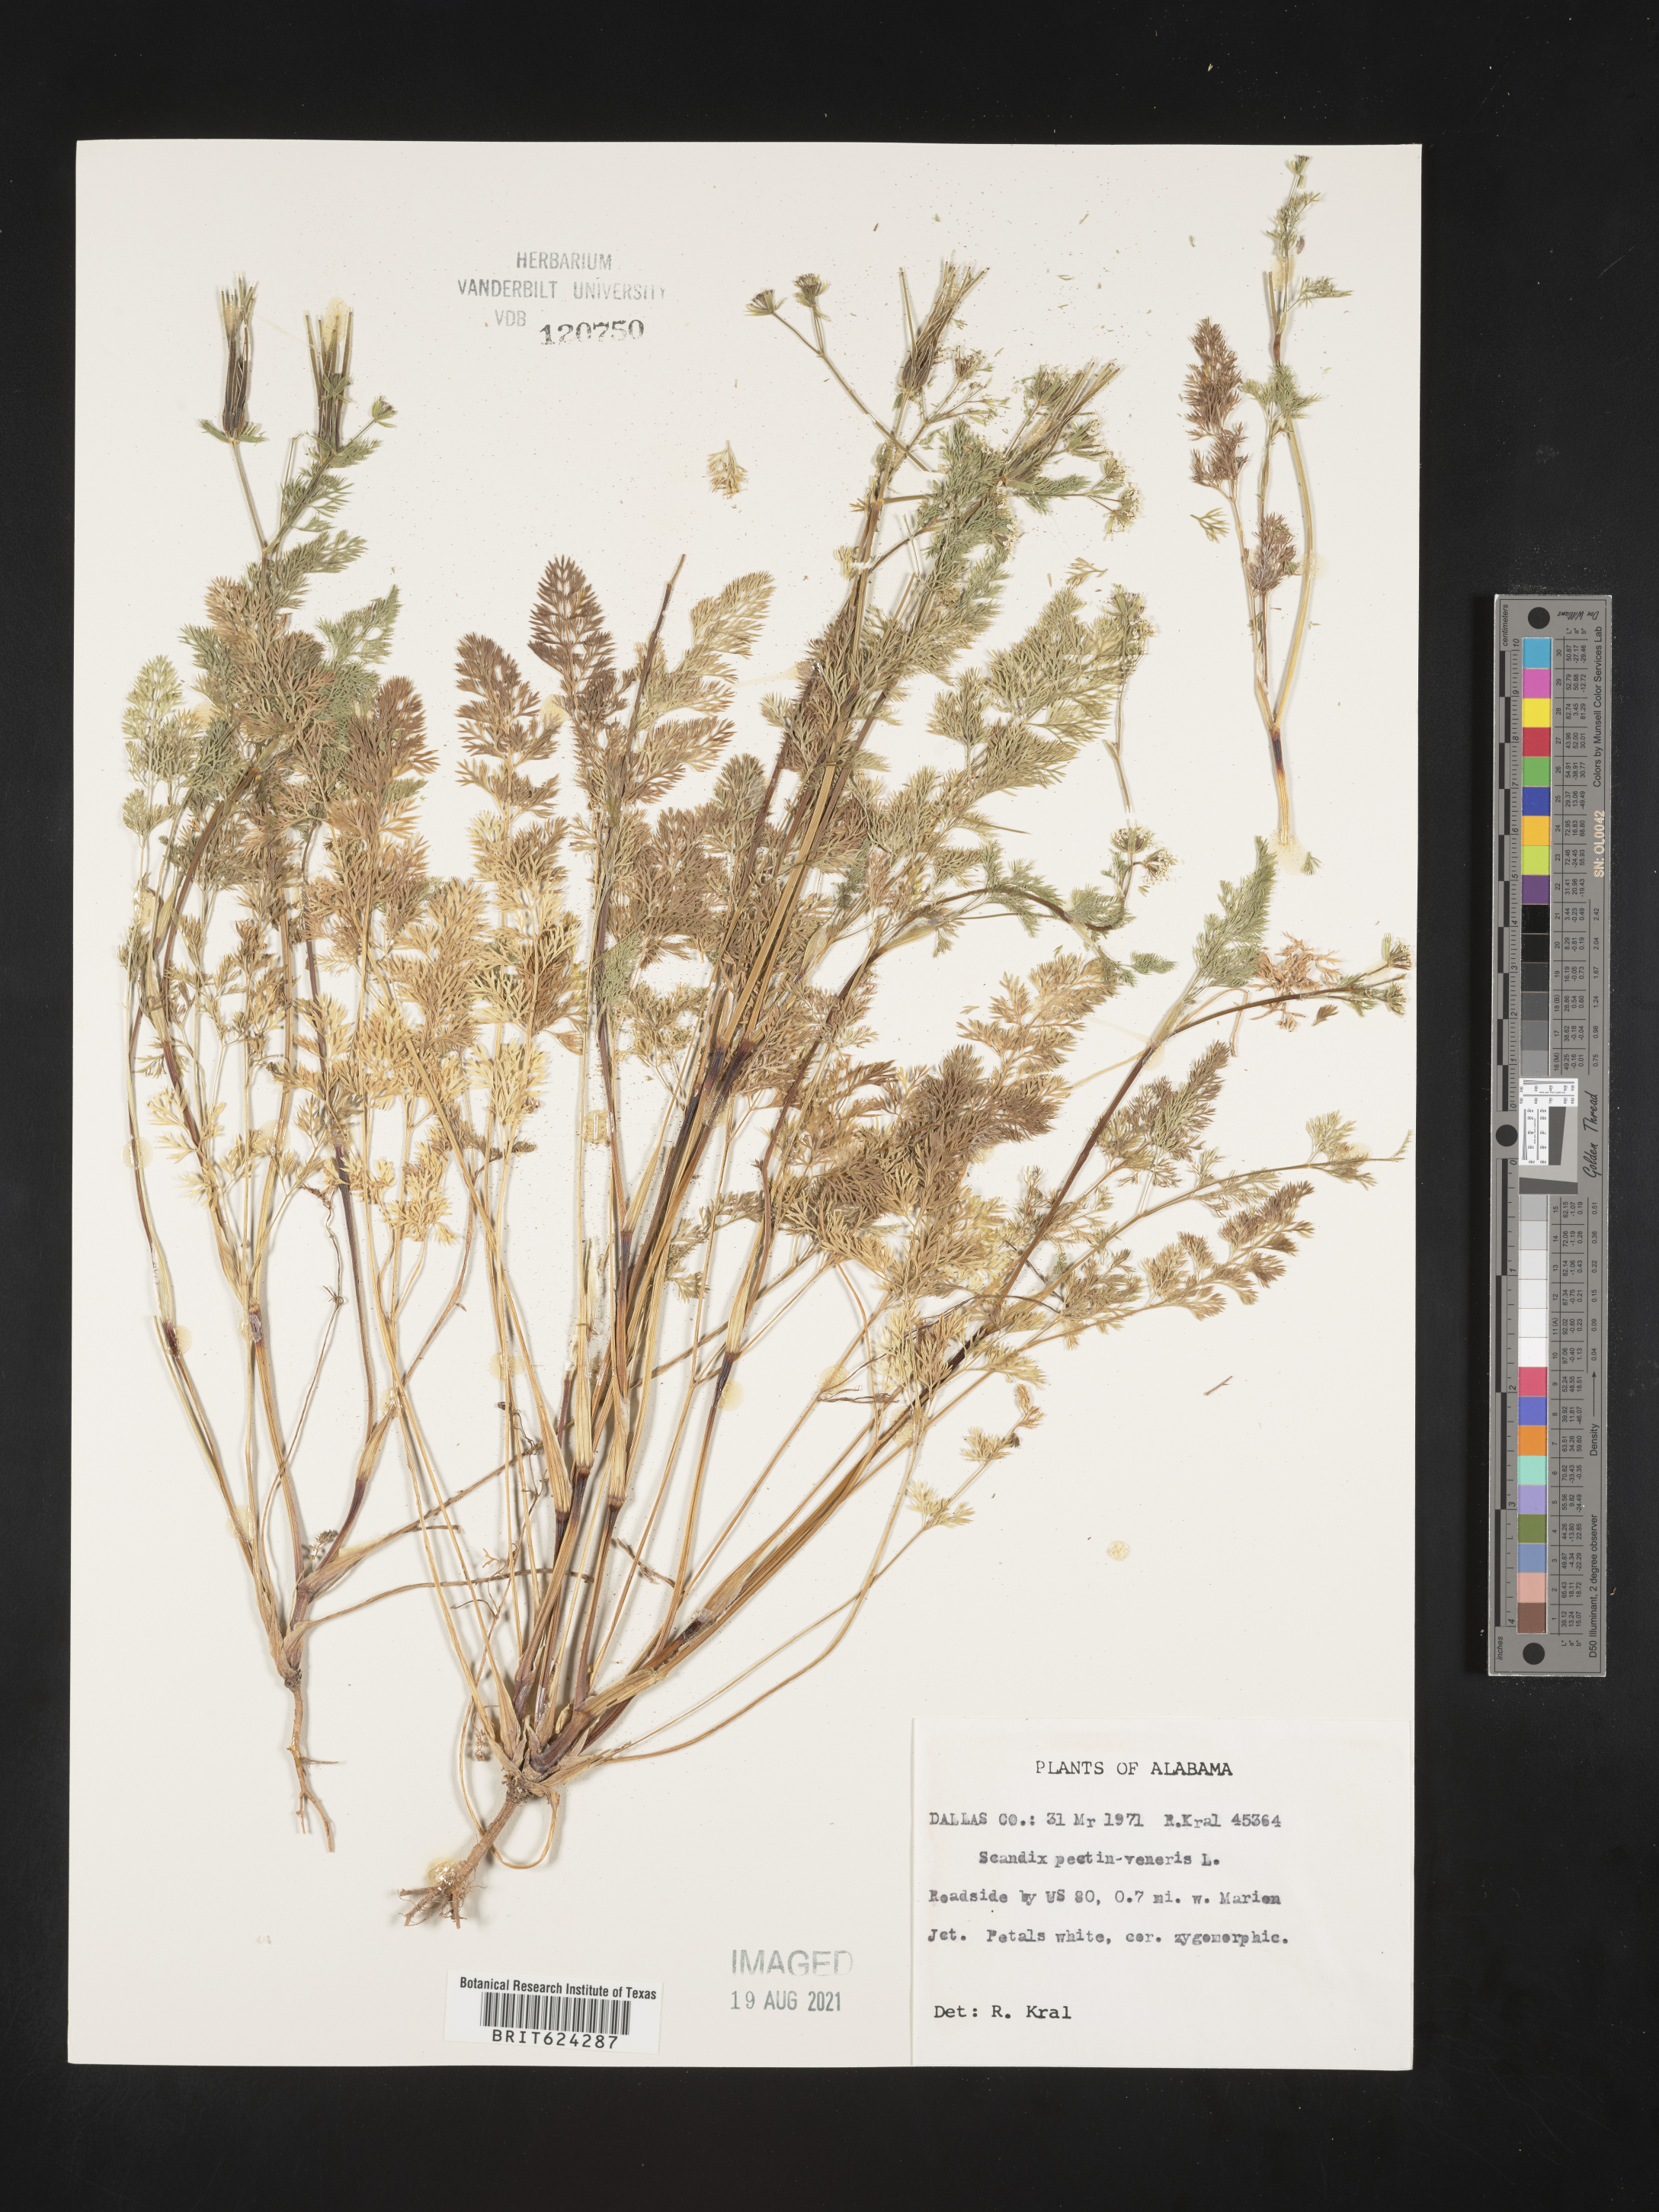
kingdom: Plantae
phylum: Tracheophyta
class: Magnoliopsida
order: Apiales
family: Apiaceae
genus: Scandix
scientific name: Scandix
